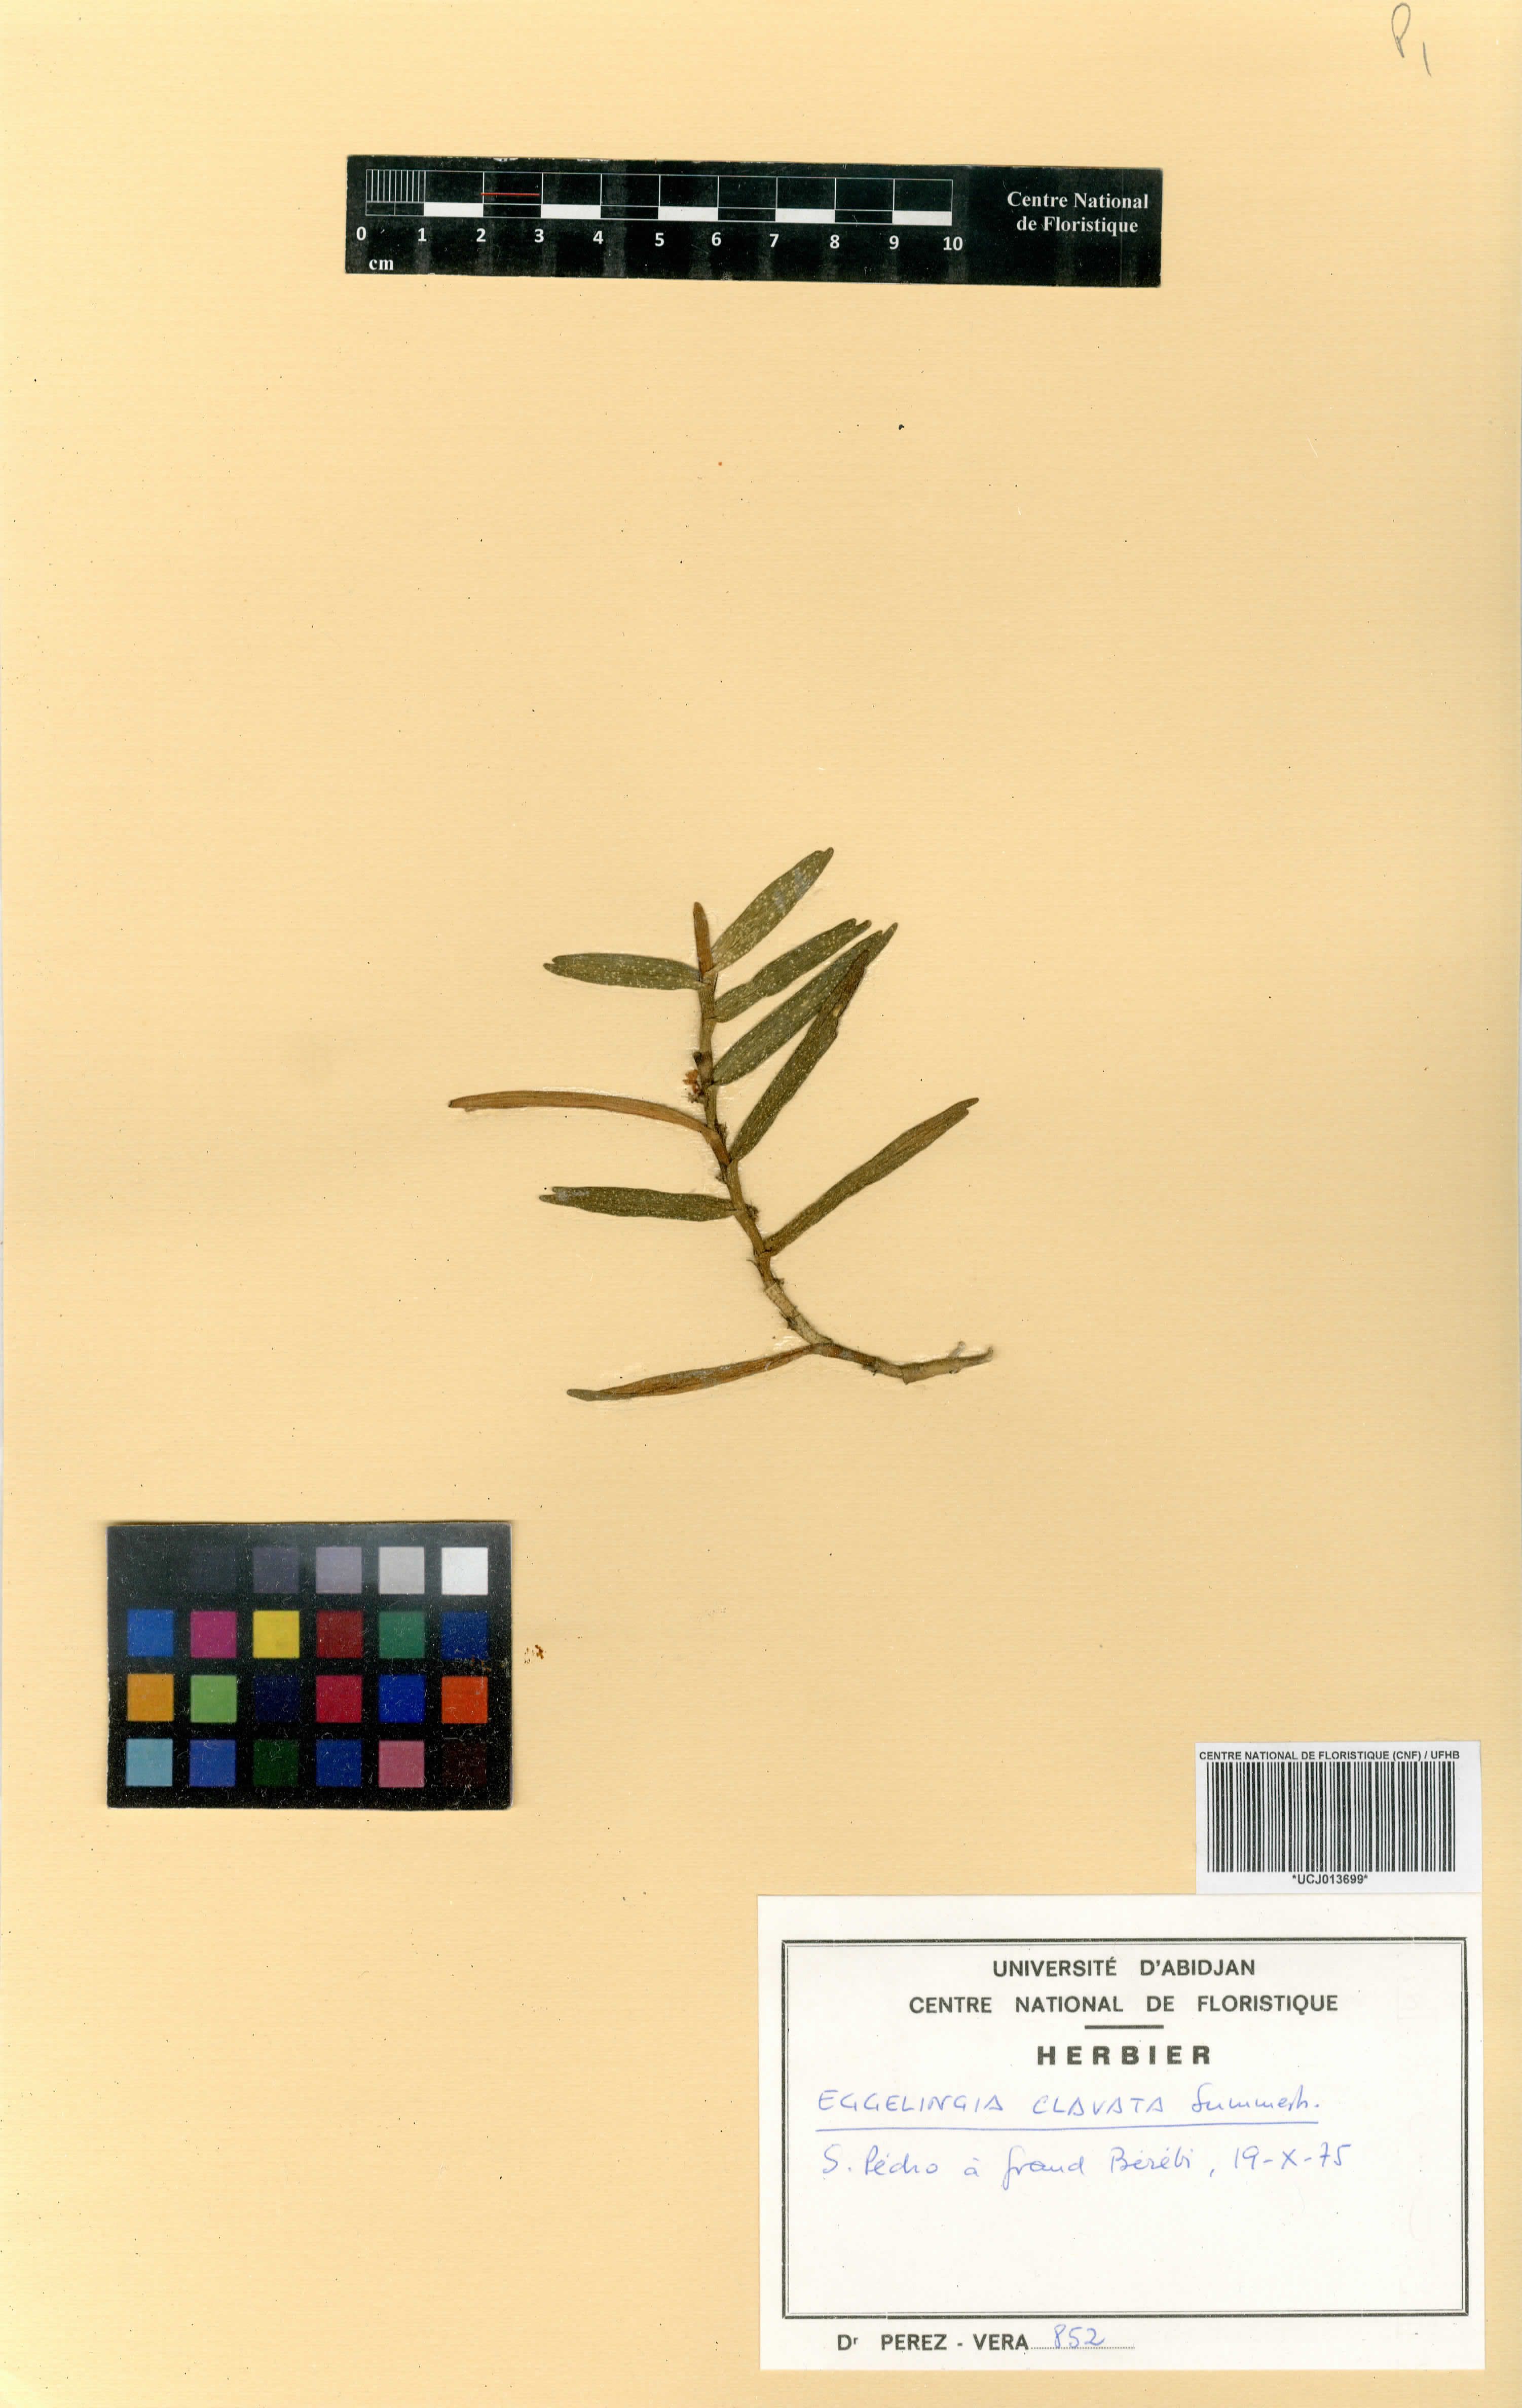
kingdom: Plantae
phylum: Tracheophyta
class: Liliopsida
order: Asparagales
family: Orchidaceae
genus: Eggelingia
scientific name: Eggelingia clavata
